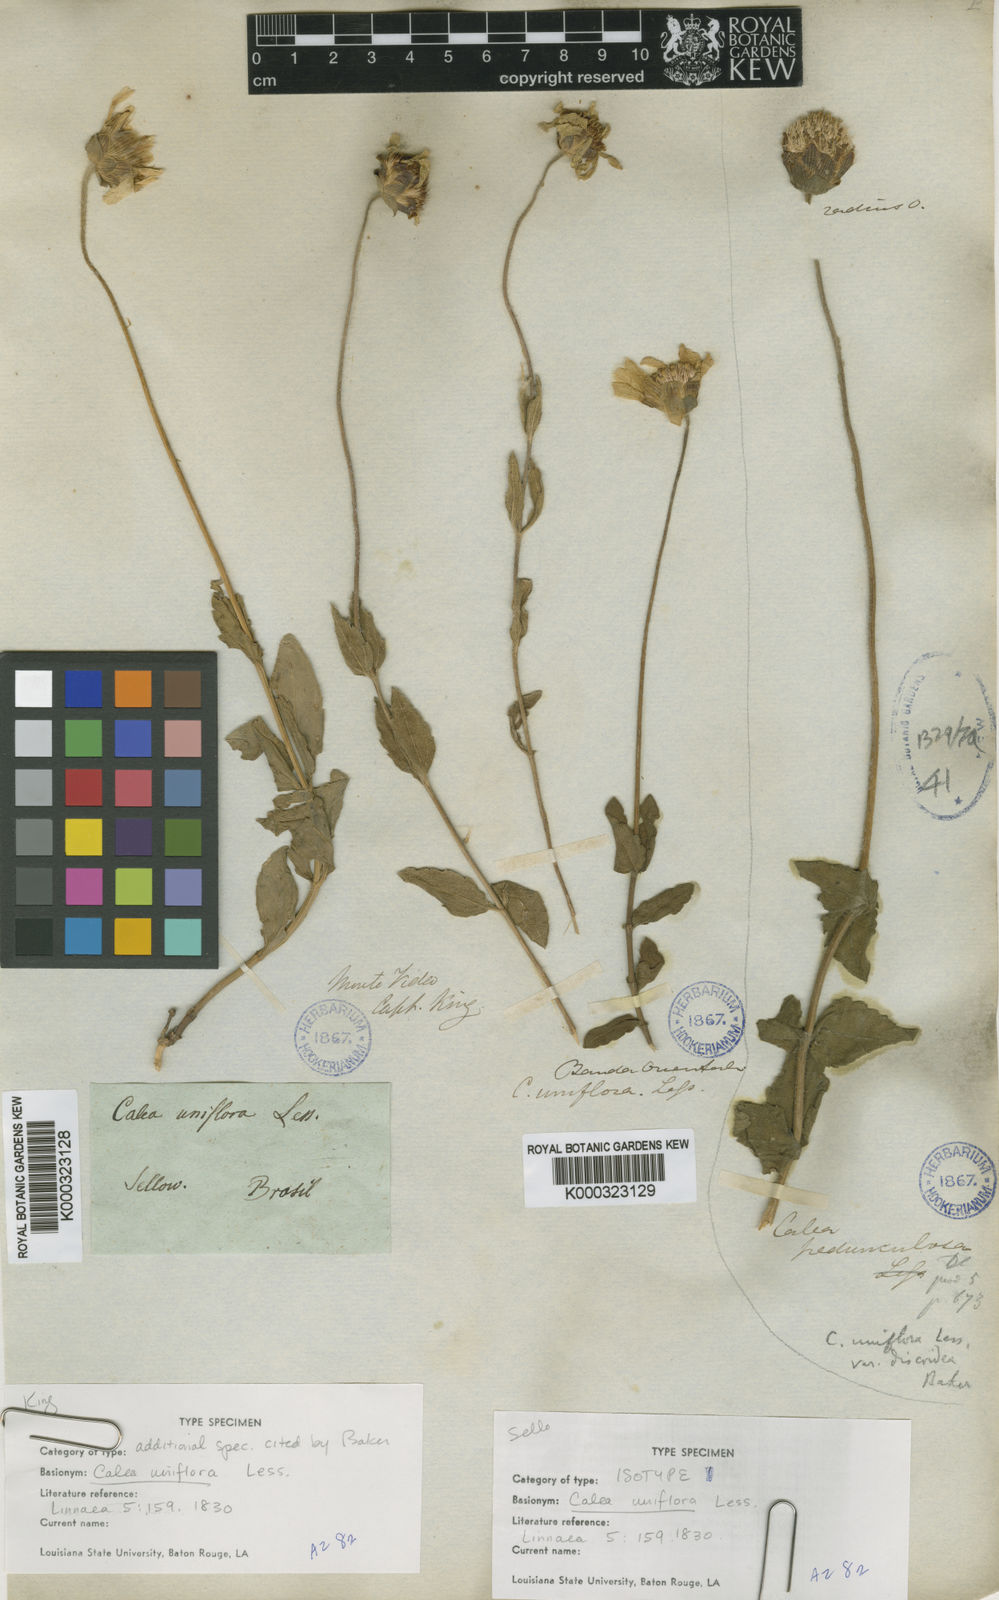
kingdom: Plantae
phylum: Tracheophyta
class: Magnoliopsida
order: Asterales
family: Asteraceae
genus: Calea
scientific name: Calea uniflora
